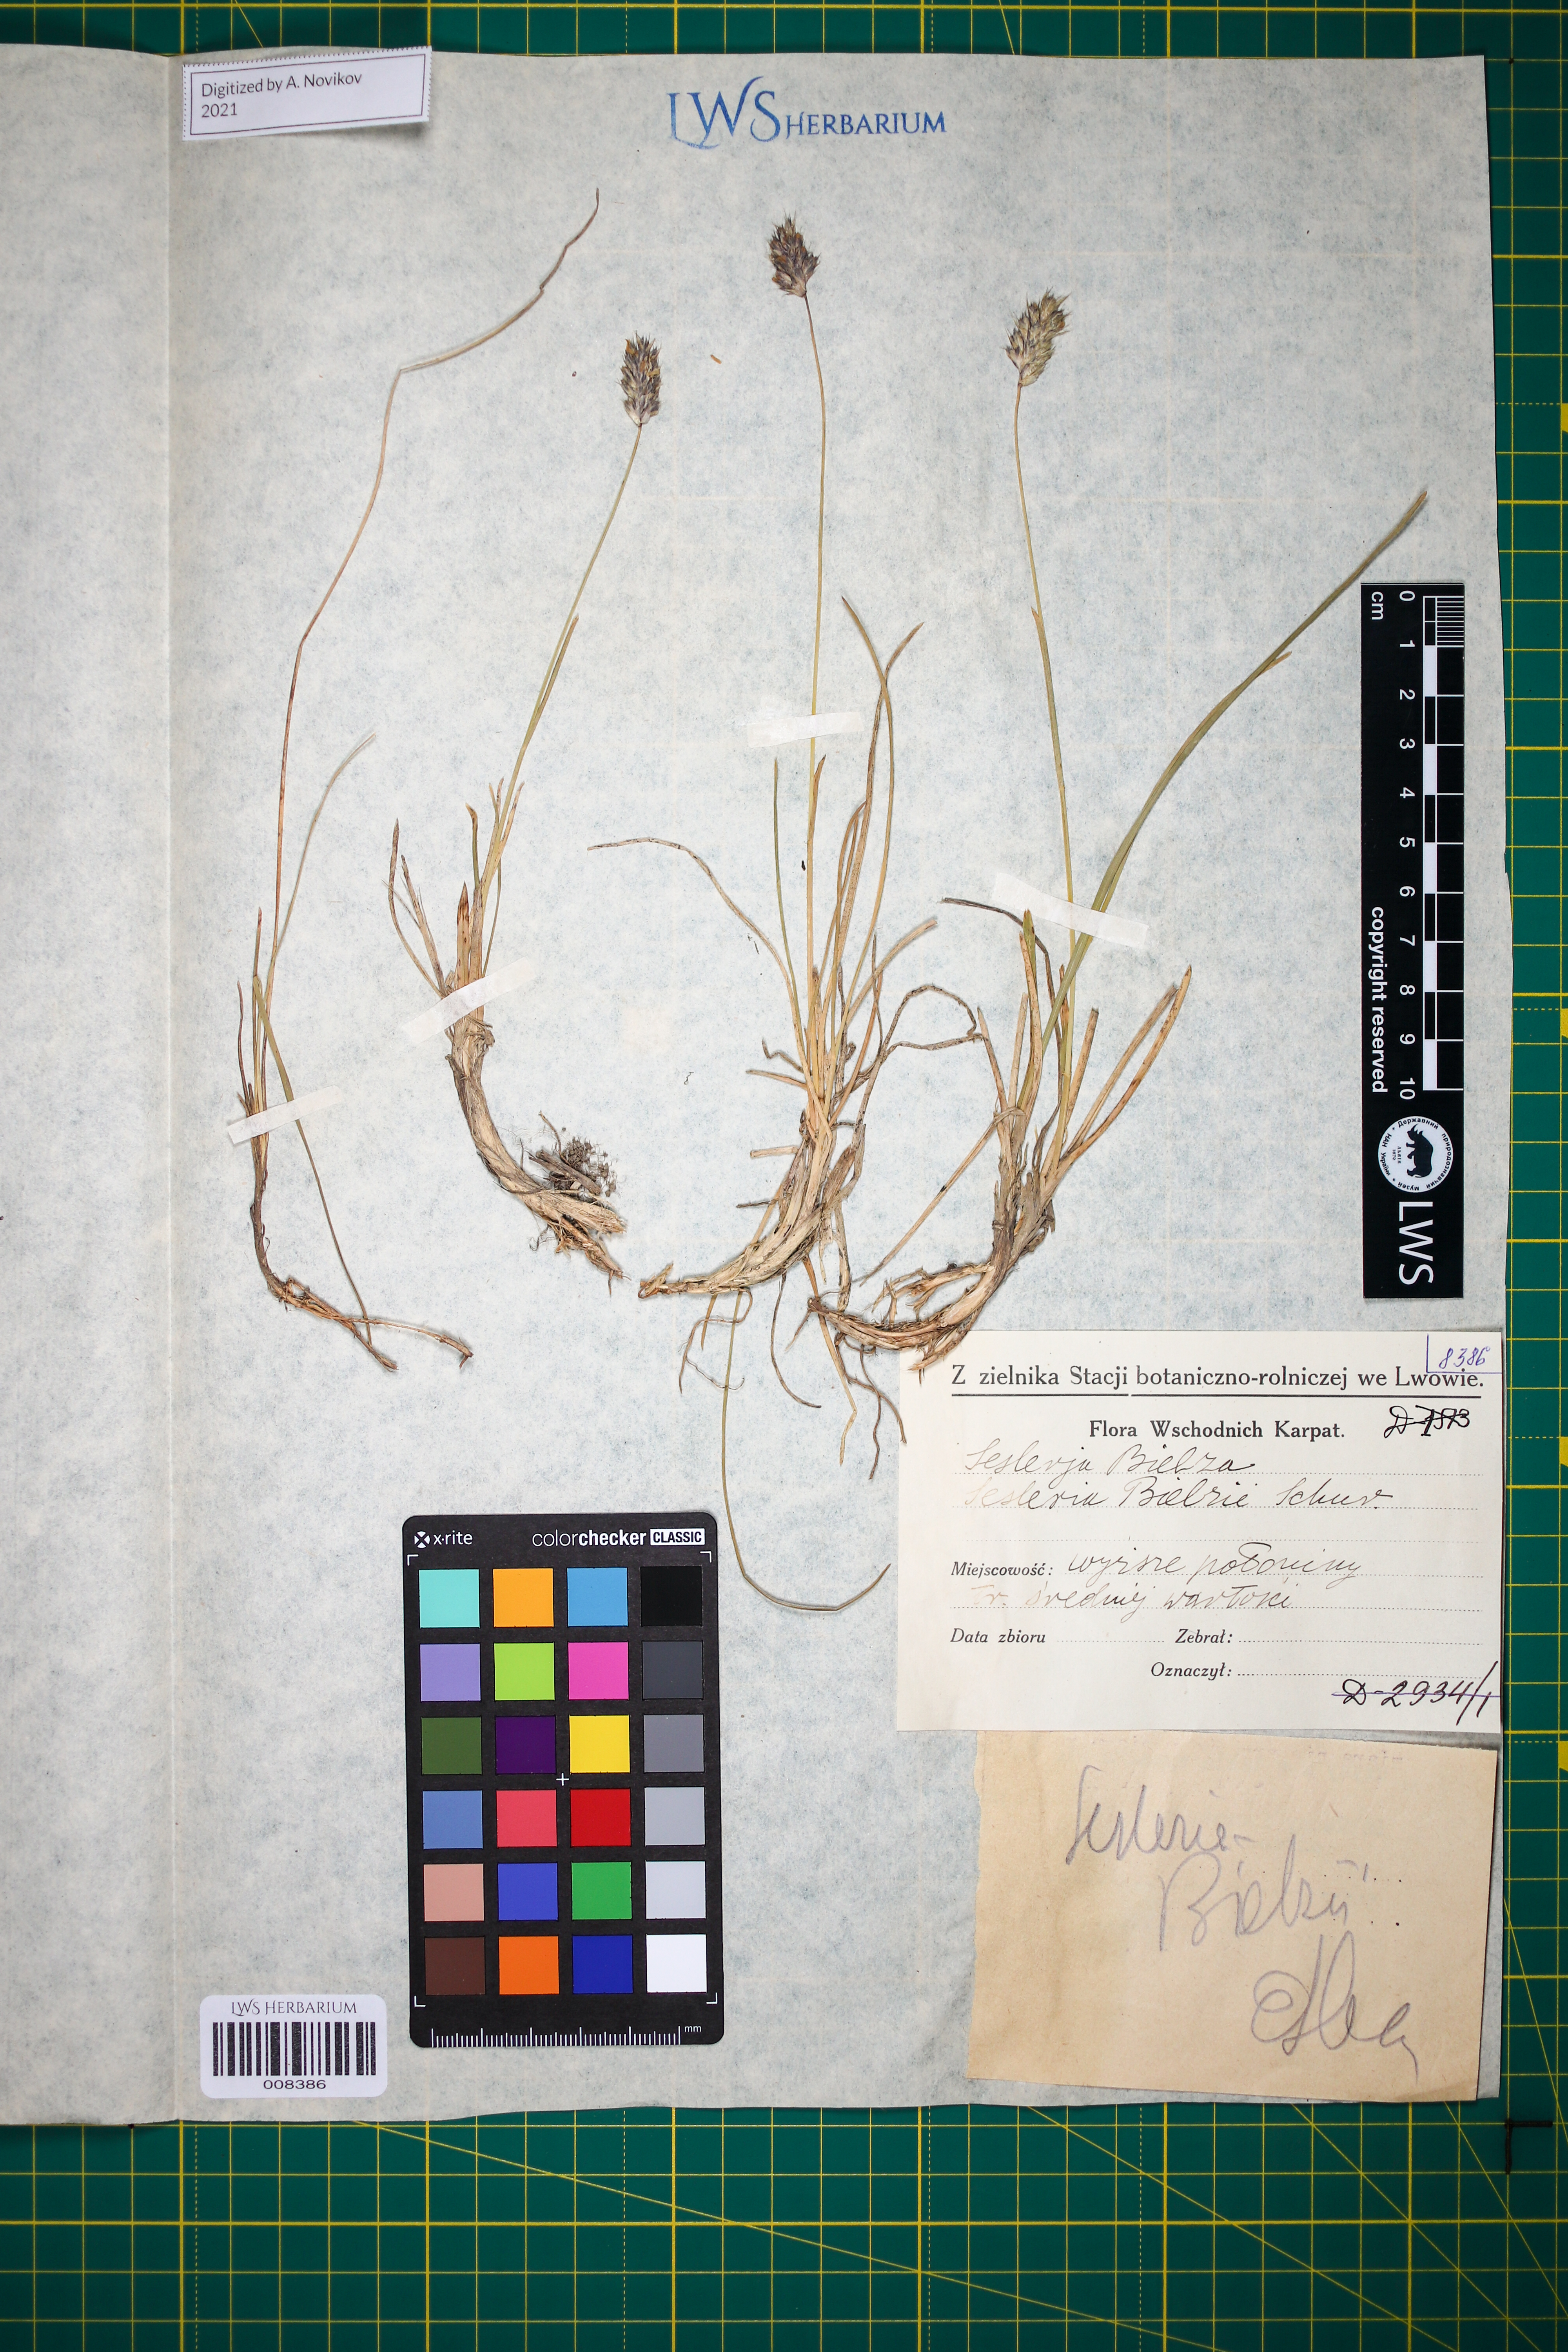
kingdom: Plantae
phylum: Tracheophyta
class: Liliopsida
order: Poales
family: Poaceae
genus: Sesleria
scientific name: Sesleria bielzii
